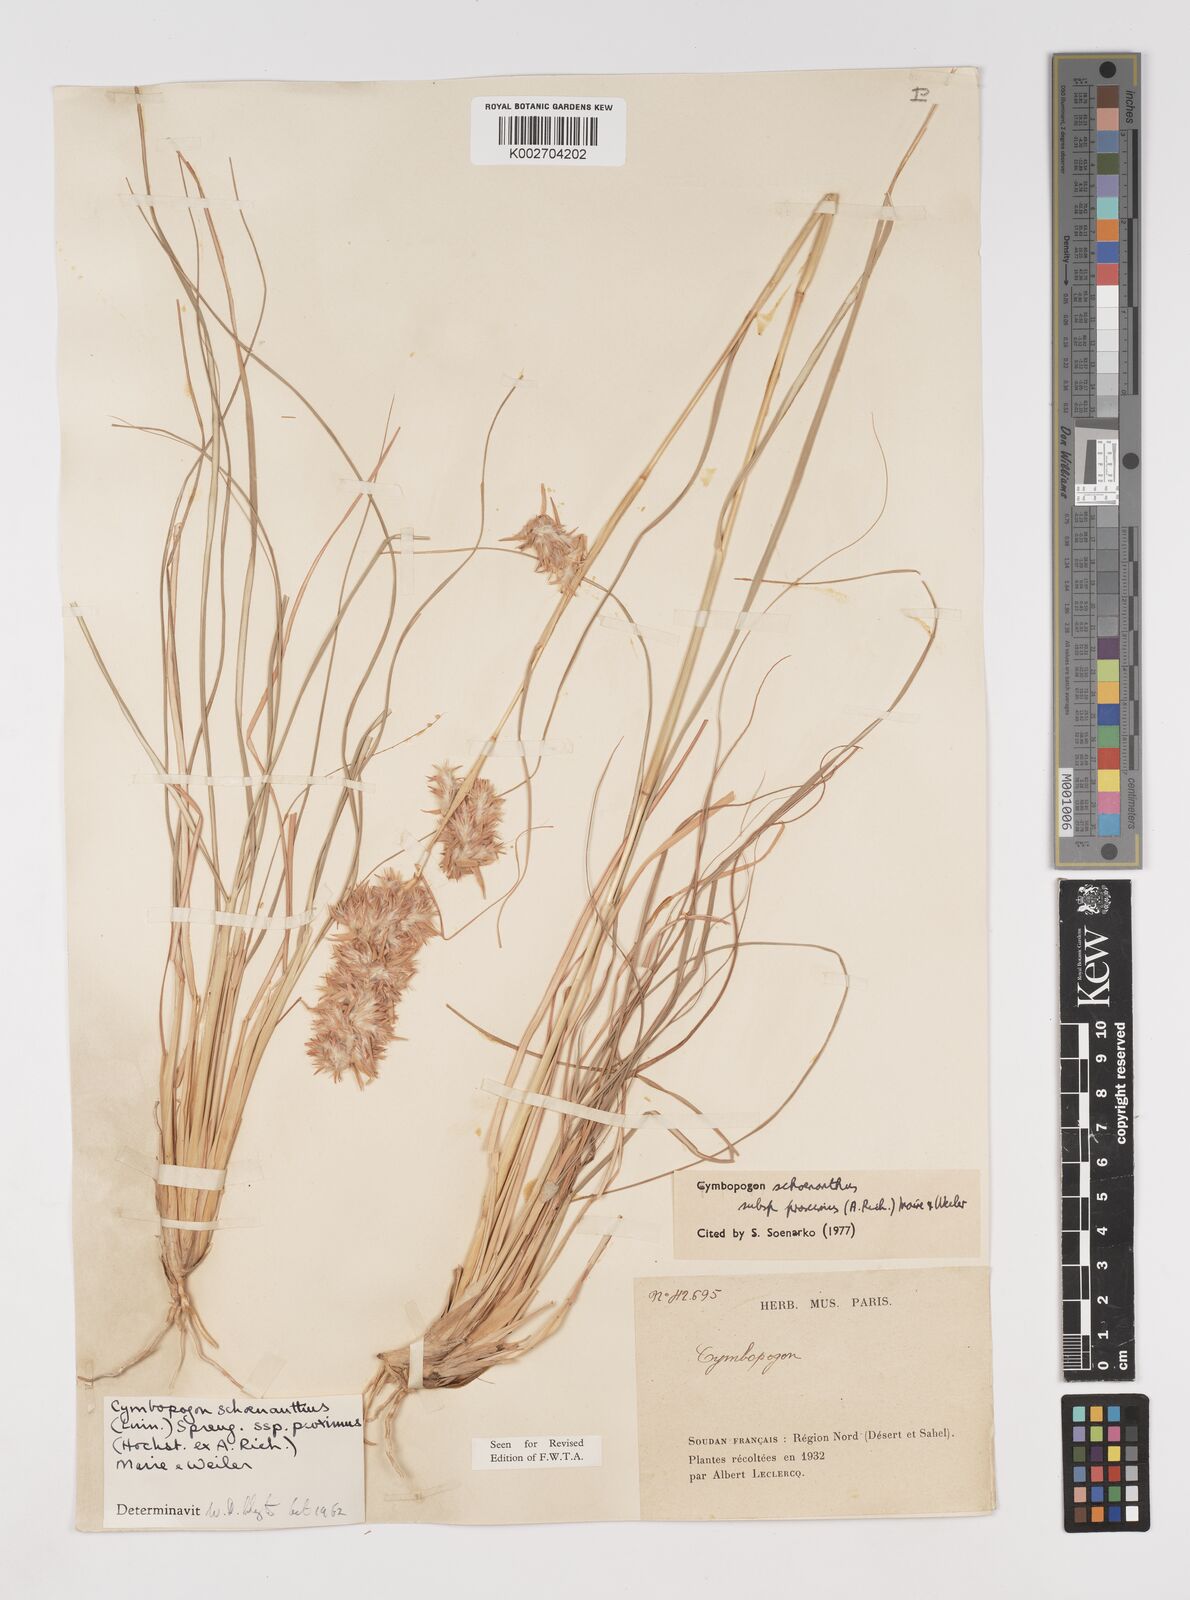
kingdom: Plantae
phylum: Tracheophyta
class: Liliopsida
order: Poales
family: Poaceae
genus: Cymbopogon
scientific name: Cymbopogon schoenanthus
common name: Geranium grass
